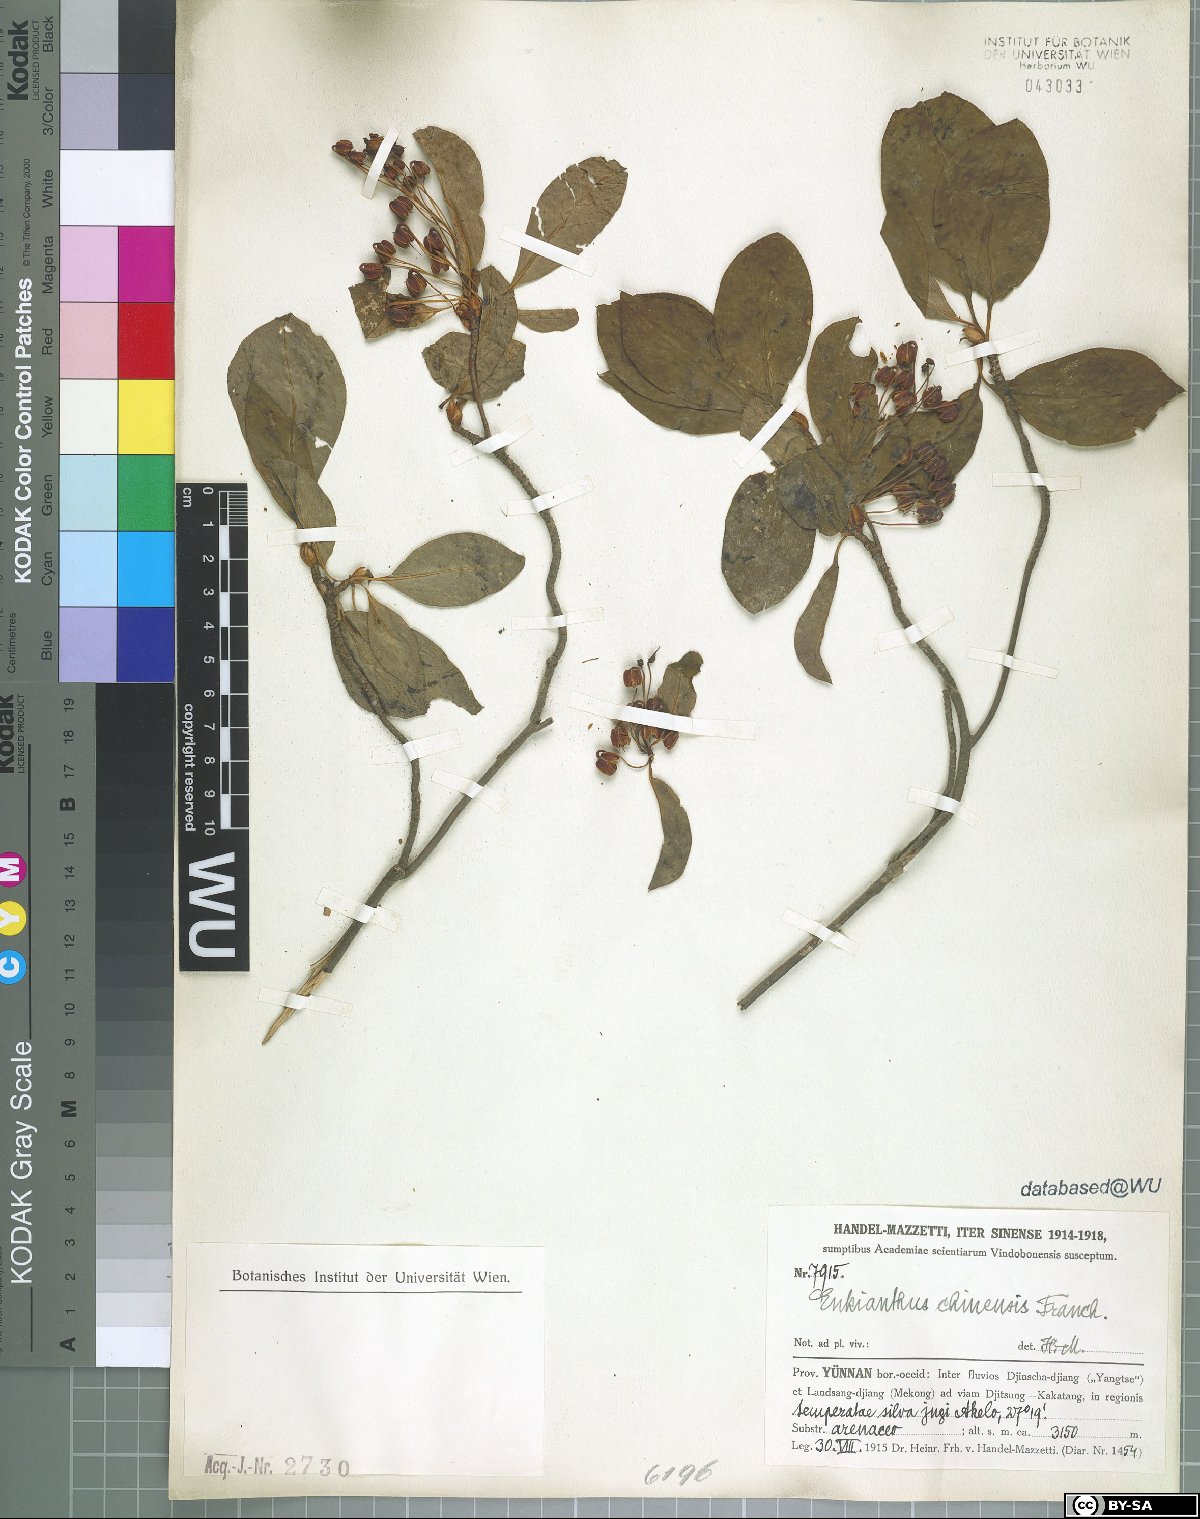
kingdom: Plantae
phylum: Tracheophyta
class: Magnoliopsida
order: Ericales
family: Ericaceae
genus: Enkianthus
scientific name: Enkianthus chinensis
